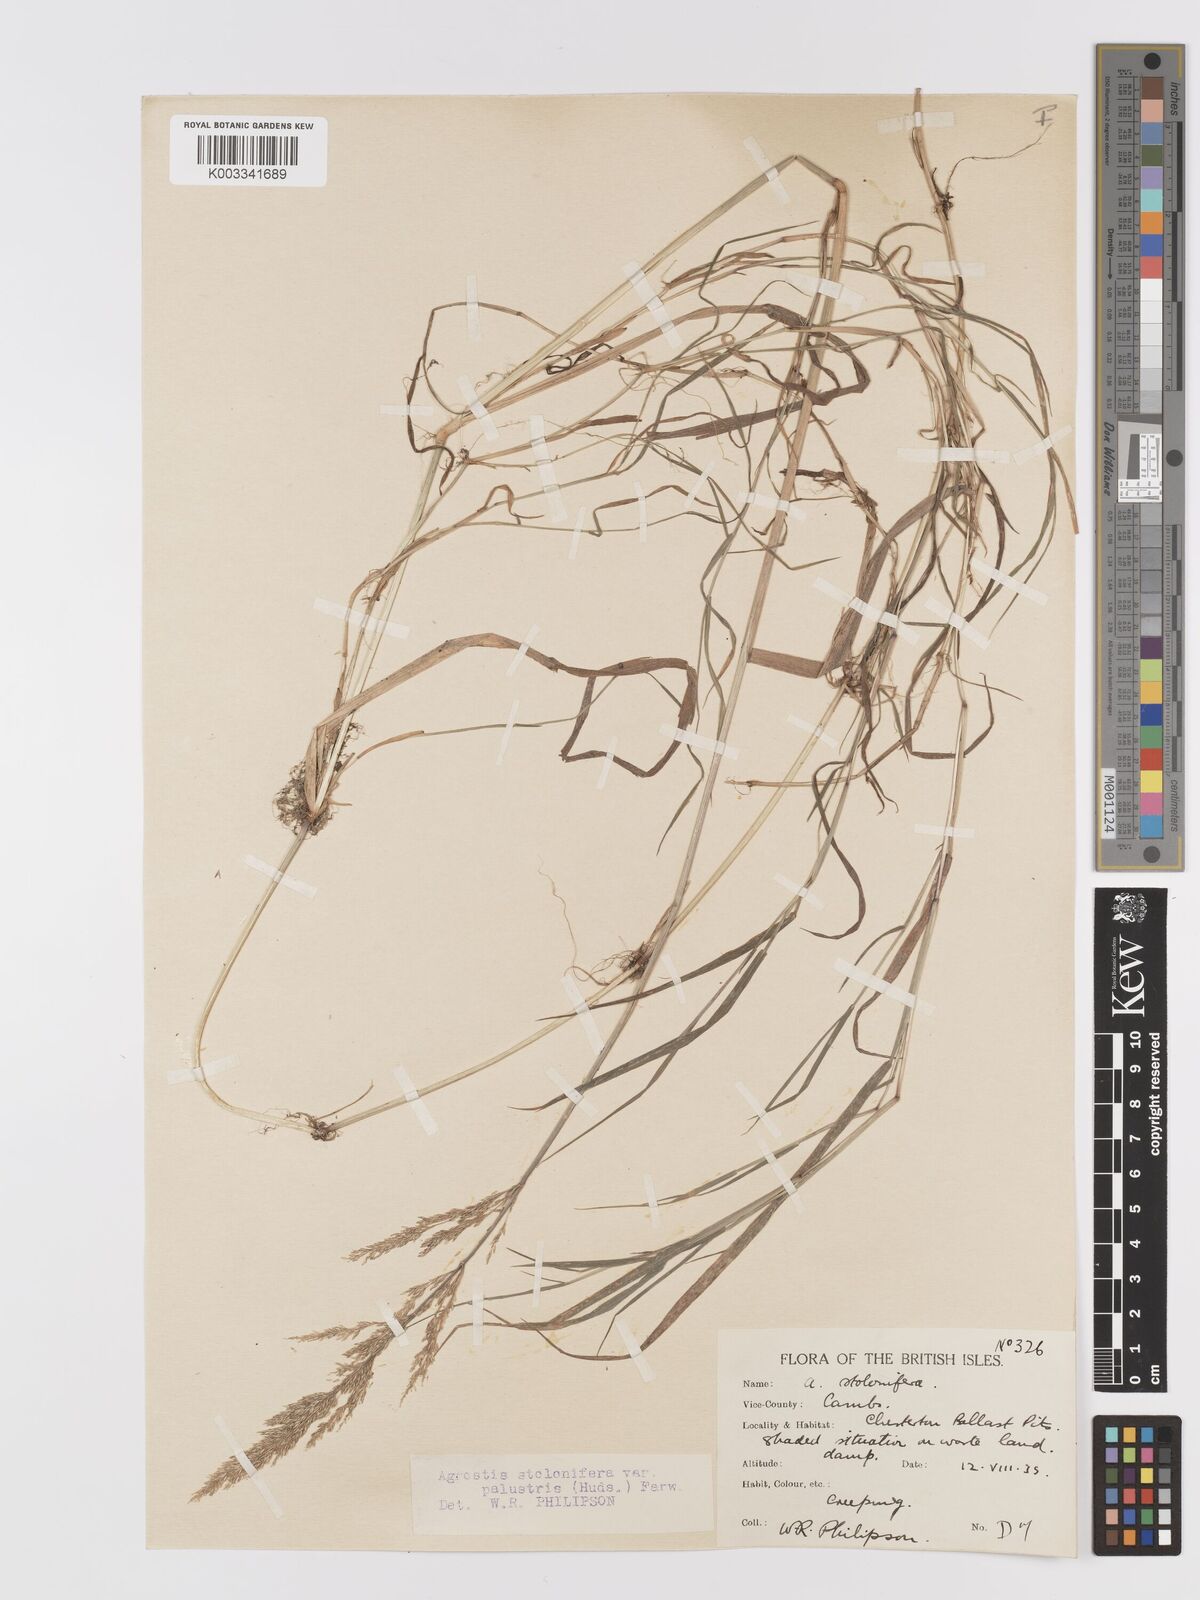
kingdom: Plantae
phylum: Tracheophyta
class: Liliopsida
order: Poales
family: Poaceae
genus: Agrostis
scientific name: Agrostis stolonifera
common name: Creeping bentgrass
